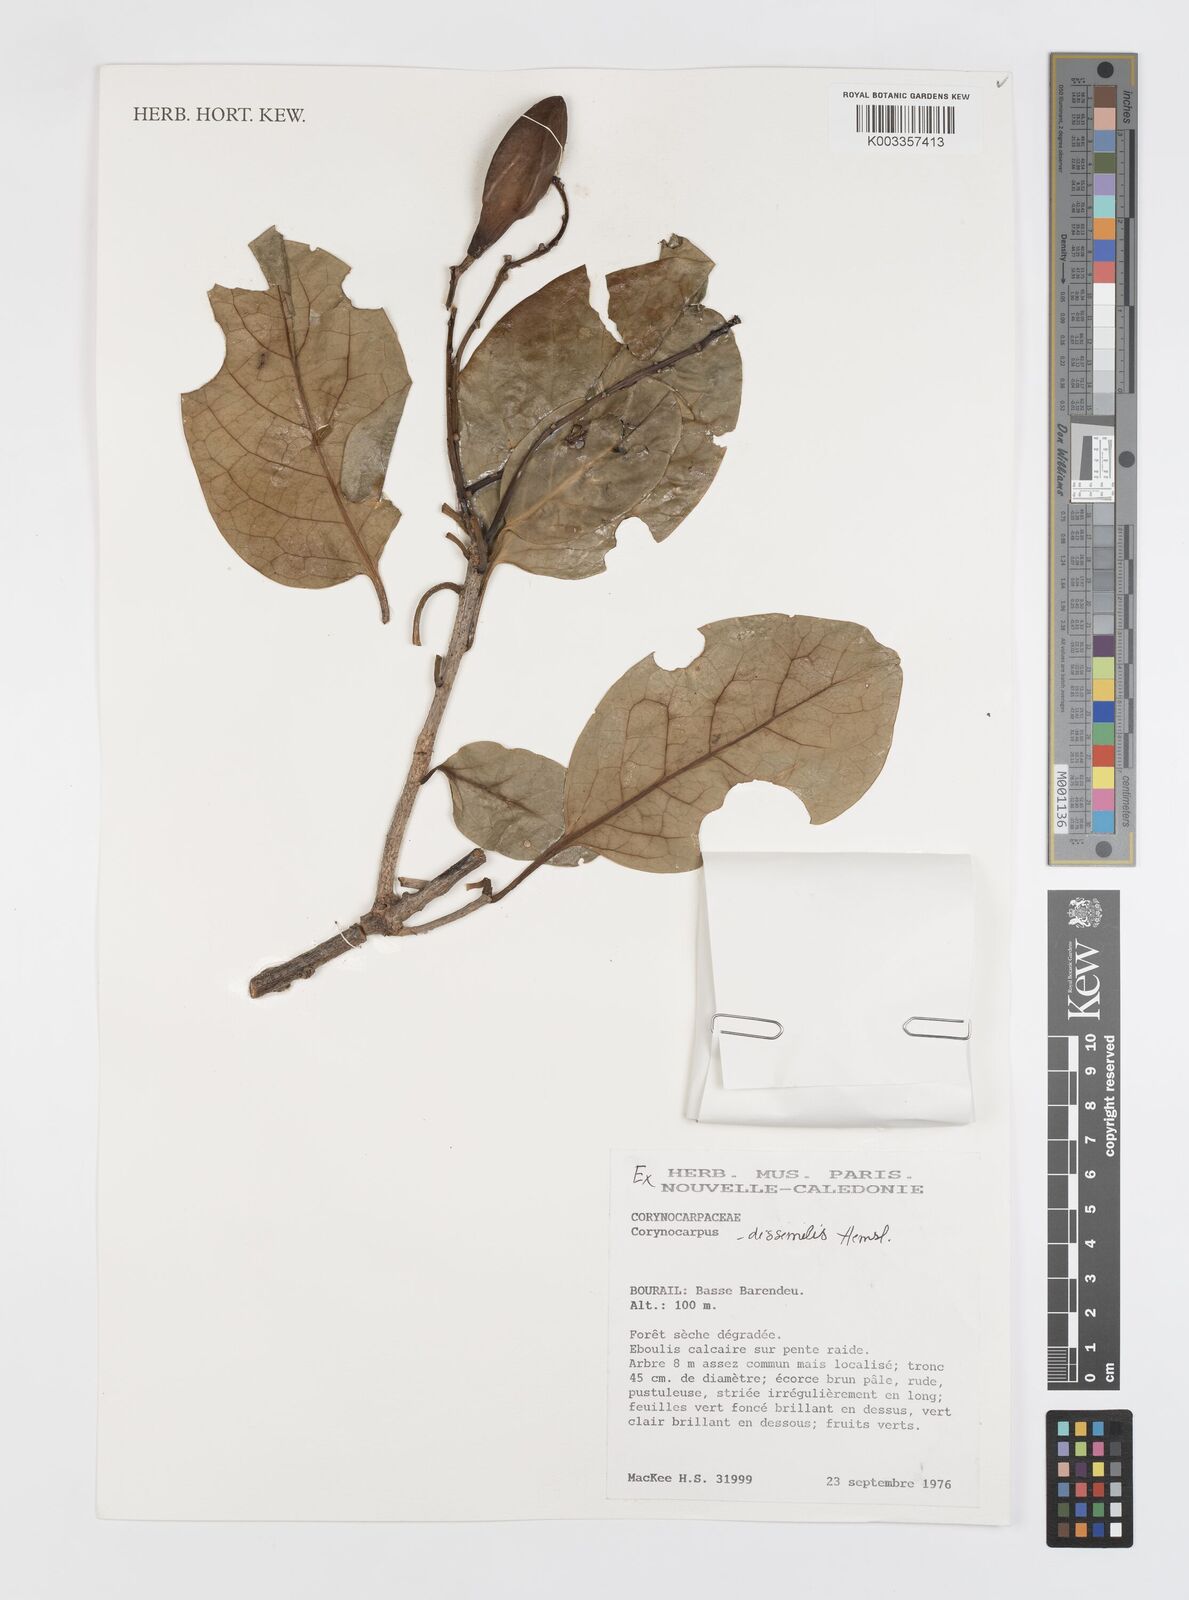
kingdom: Plantae
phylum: Tracheophyta
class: Magnoliopsida
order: Cucurbitales
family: Corynocarpaceae
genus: Corynocarpus
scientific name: Corynocarpus dissimilis
